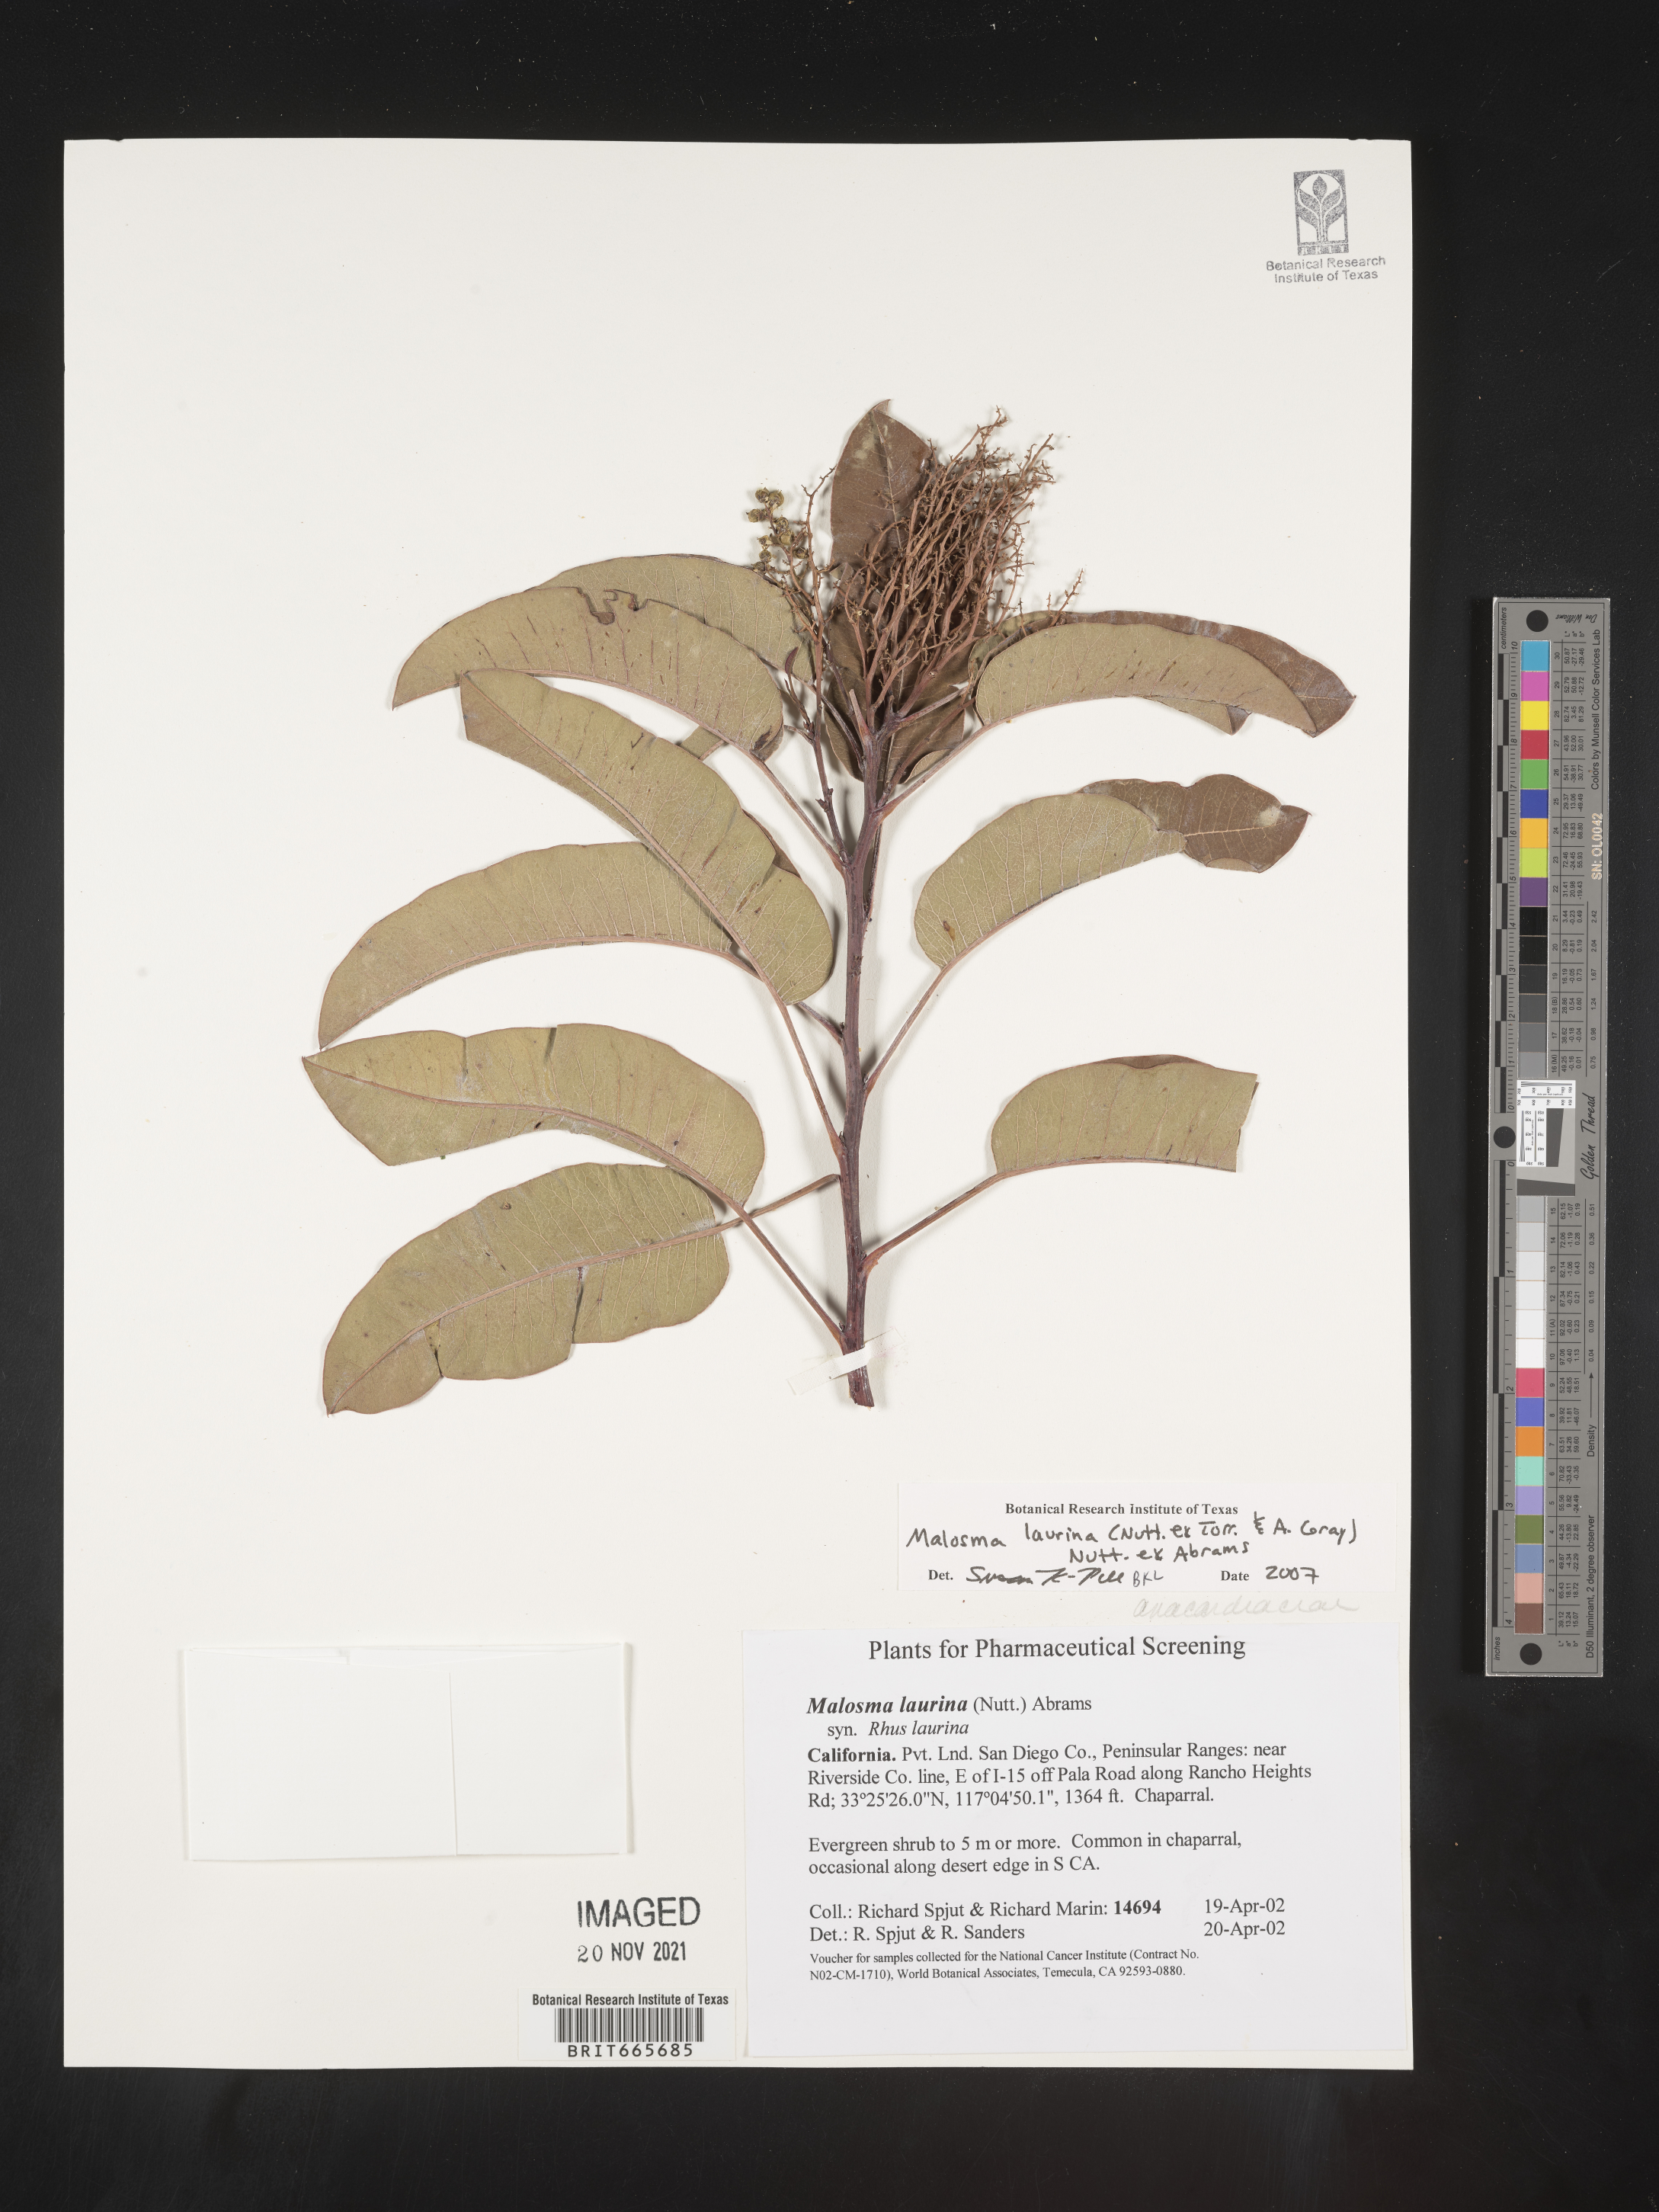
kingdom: Plantae
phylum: Tracheophyta
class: Magnoliopsida
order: Sapindales
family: Anacardiaceae
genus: Malosma
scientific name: Malosma
